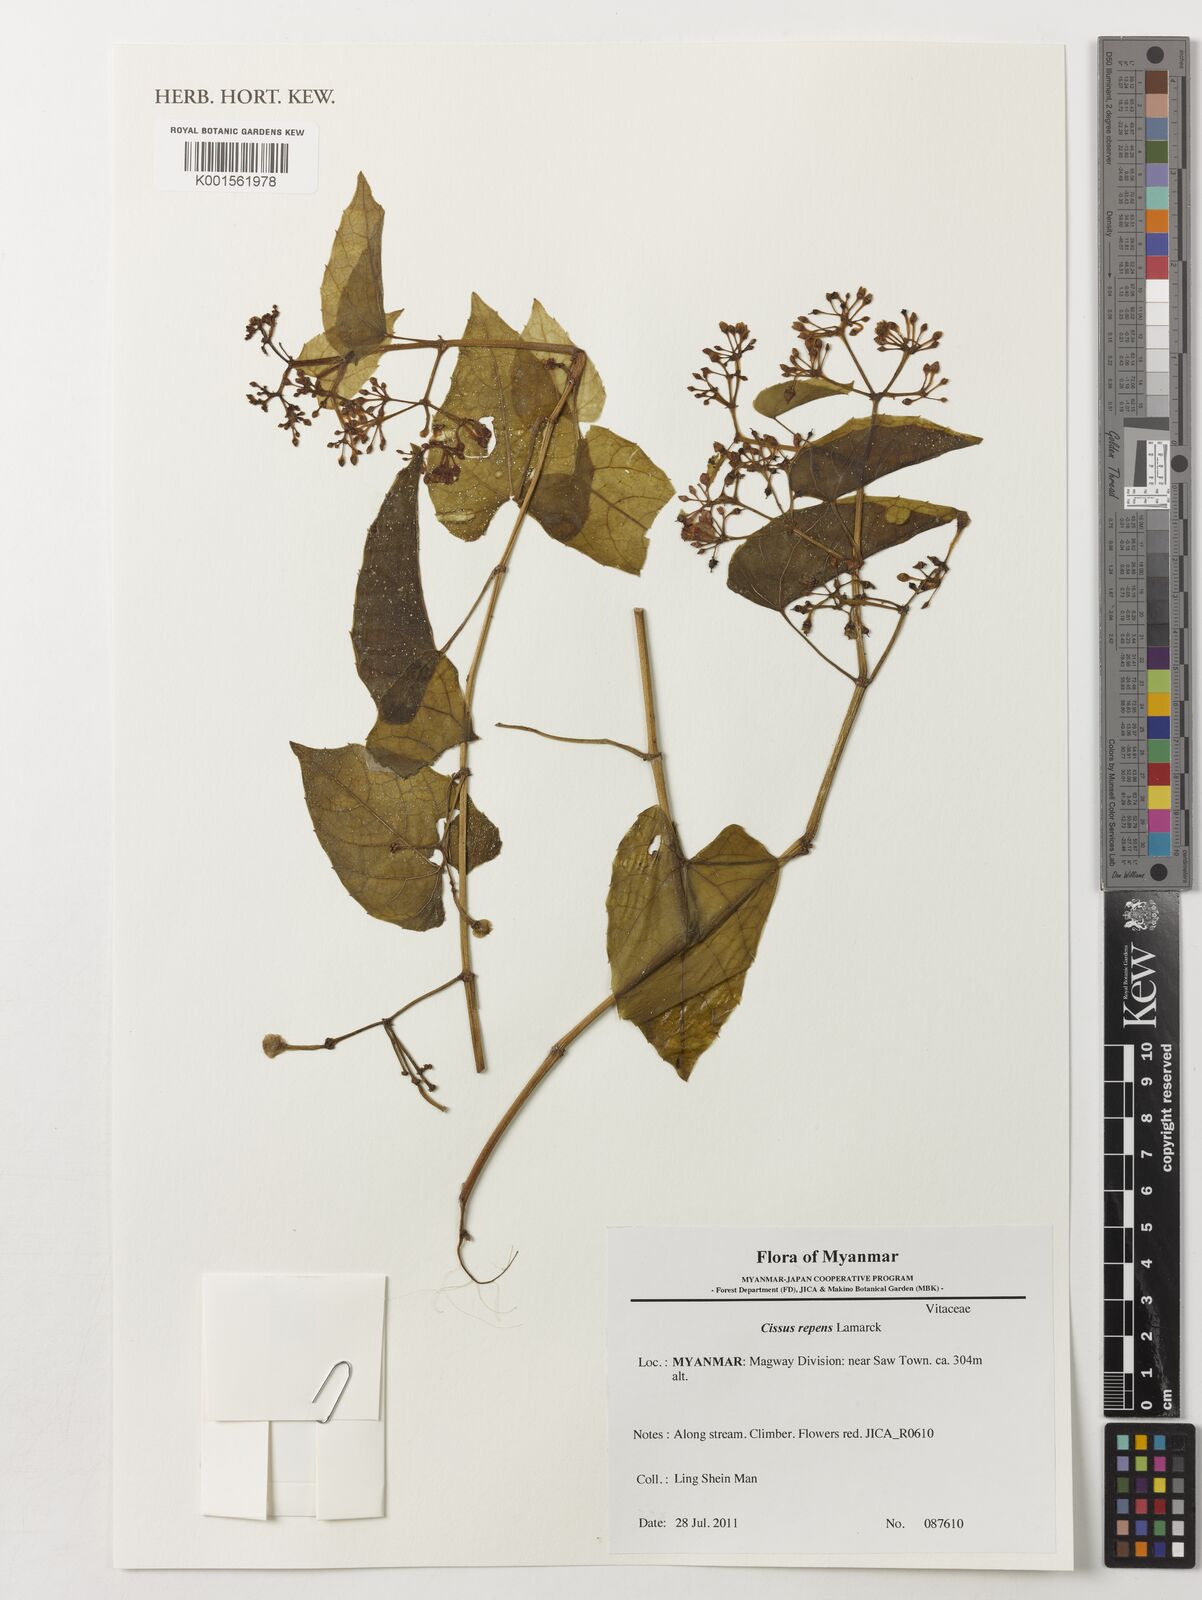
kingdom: Plantae
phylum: Tracheophyta
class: Magnoliopsida
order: Vitales
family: Vitaceae
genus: Cissus
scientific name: Cissus repens
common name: Cissus
